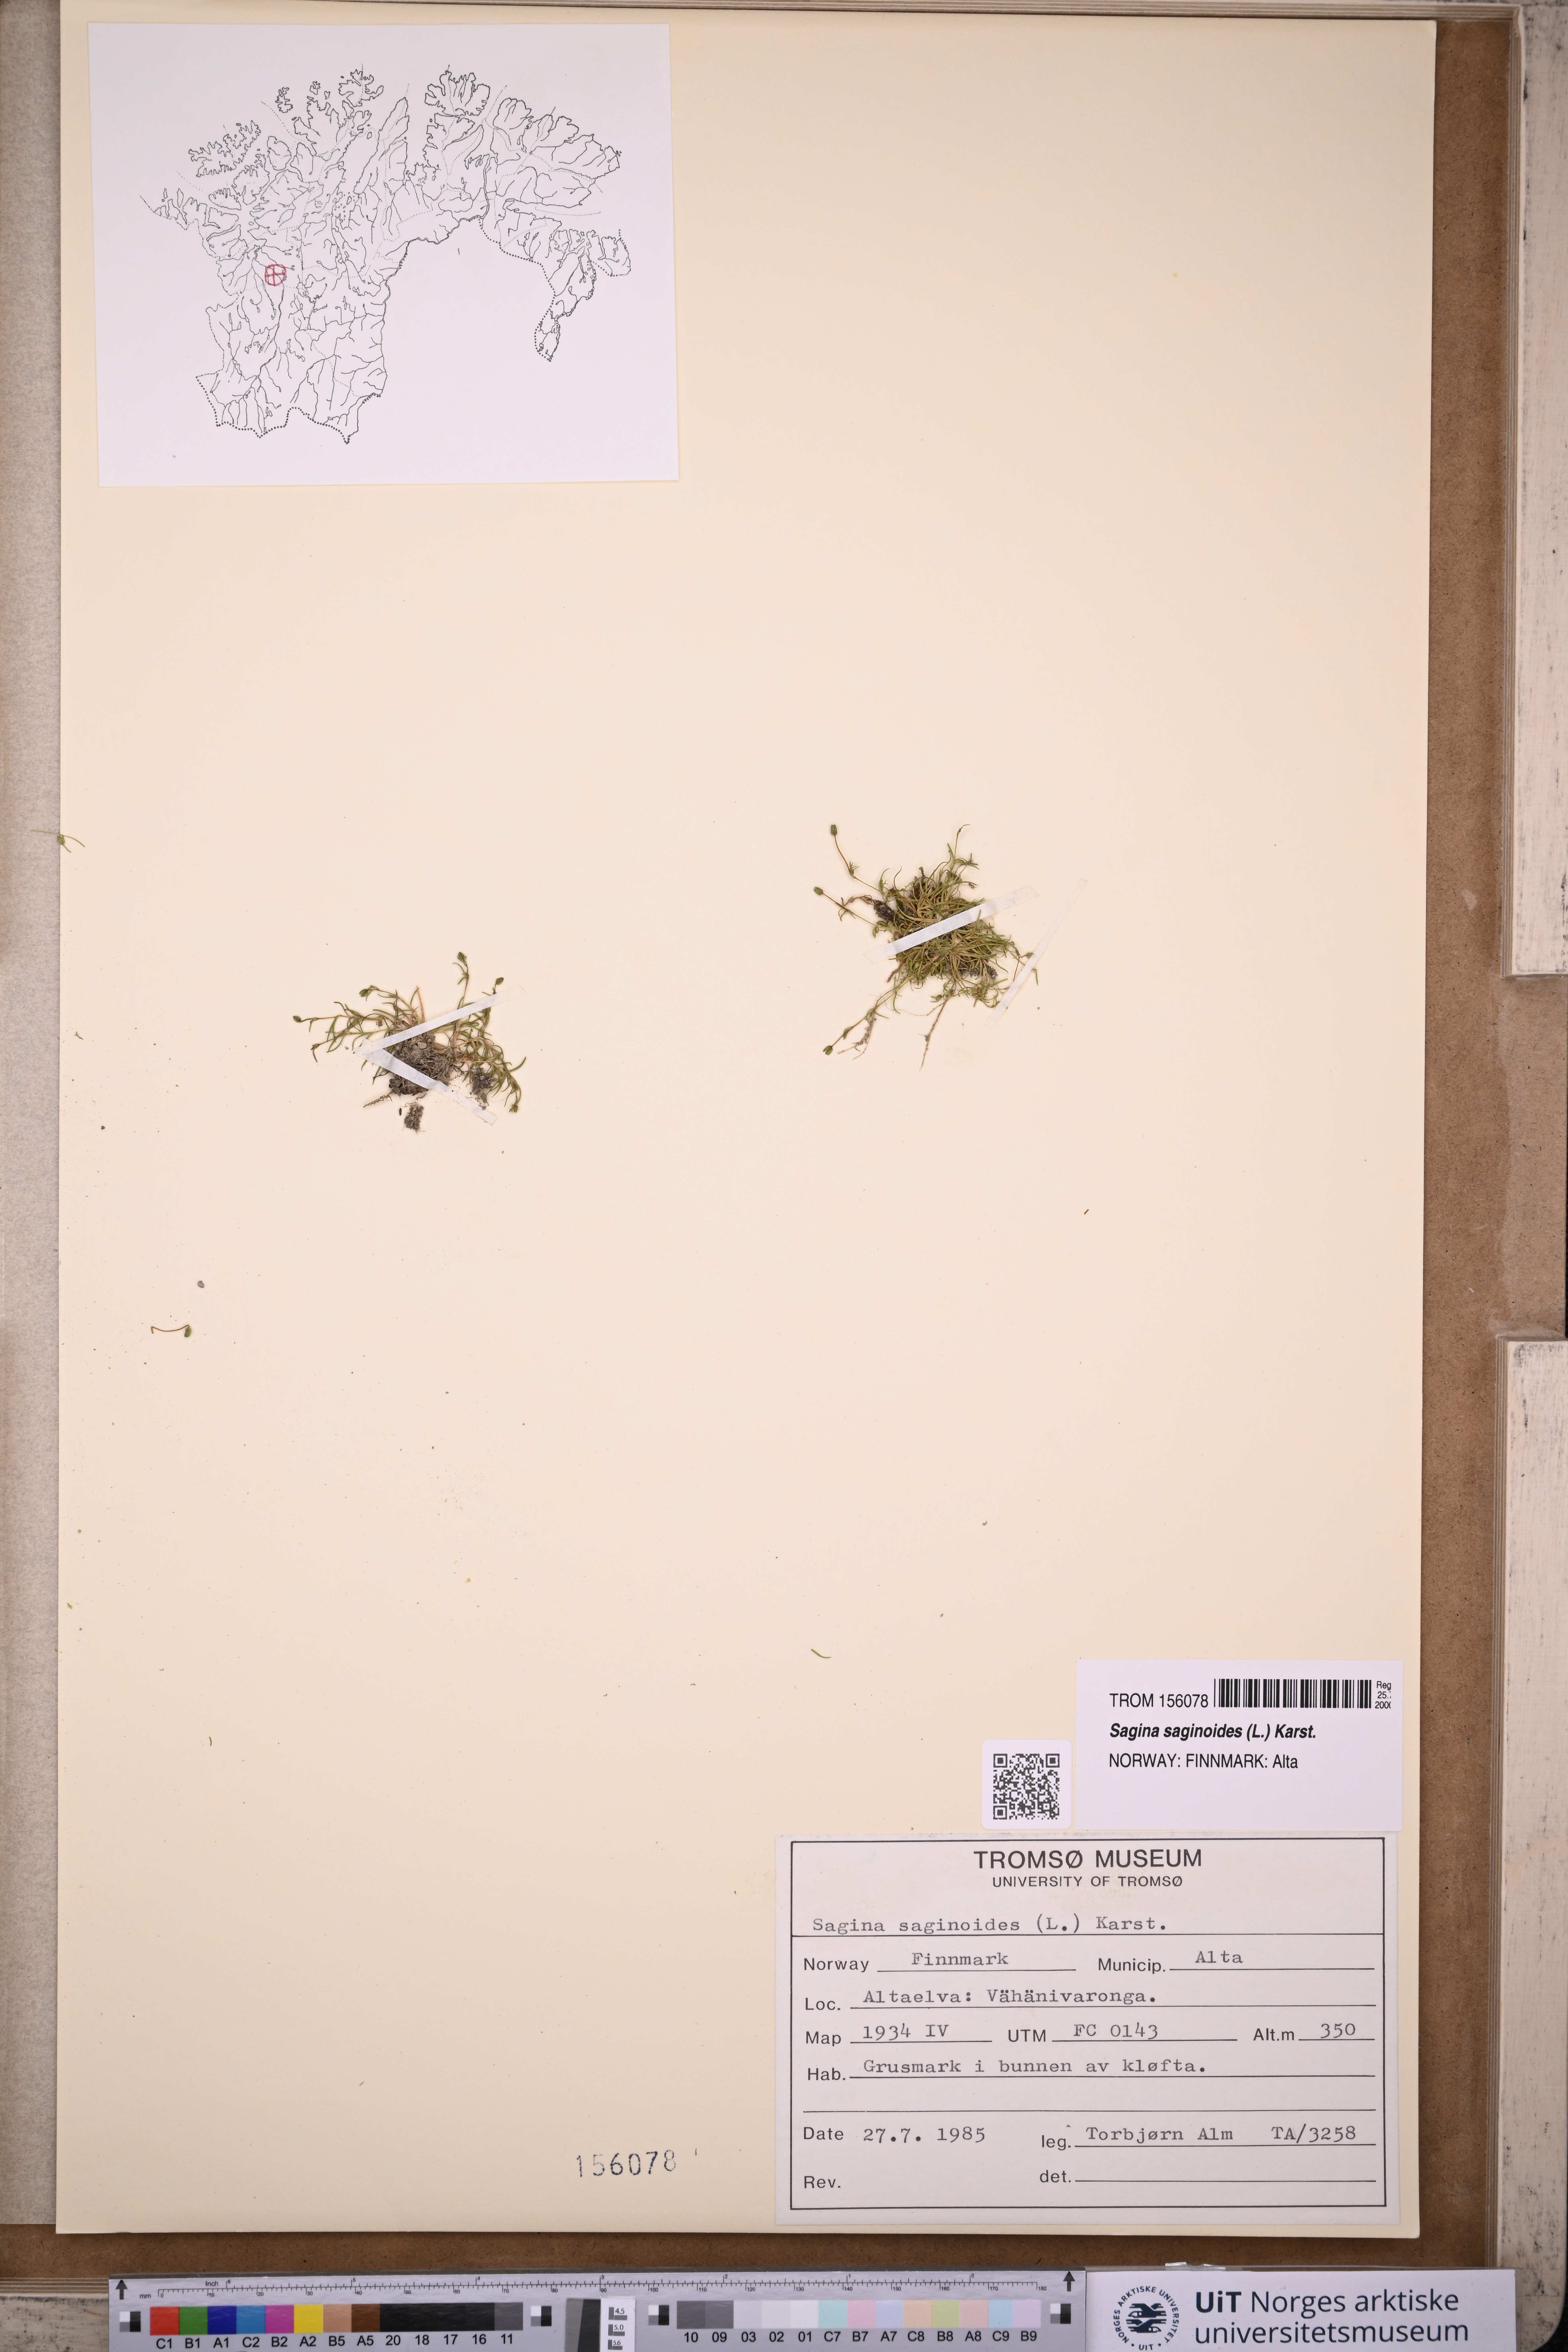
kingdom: Plantae
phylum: Tracheophyta
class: Magnoliopsida
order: Caryophyllales
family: Caryophyllaceae
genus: Sagina
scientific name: Sagina saginoides
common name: Alpine pearlwort
